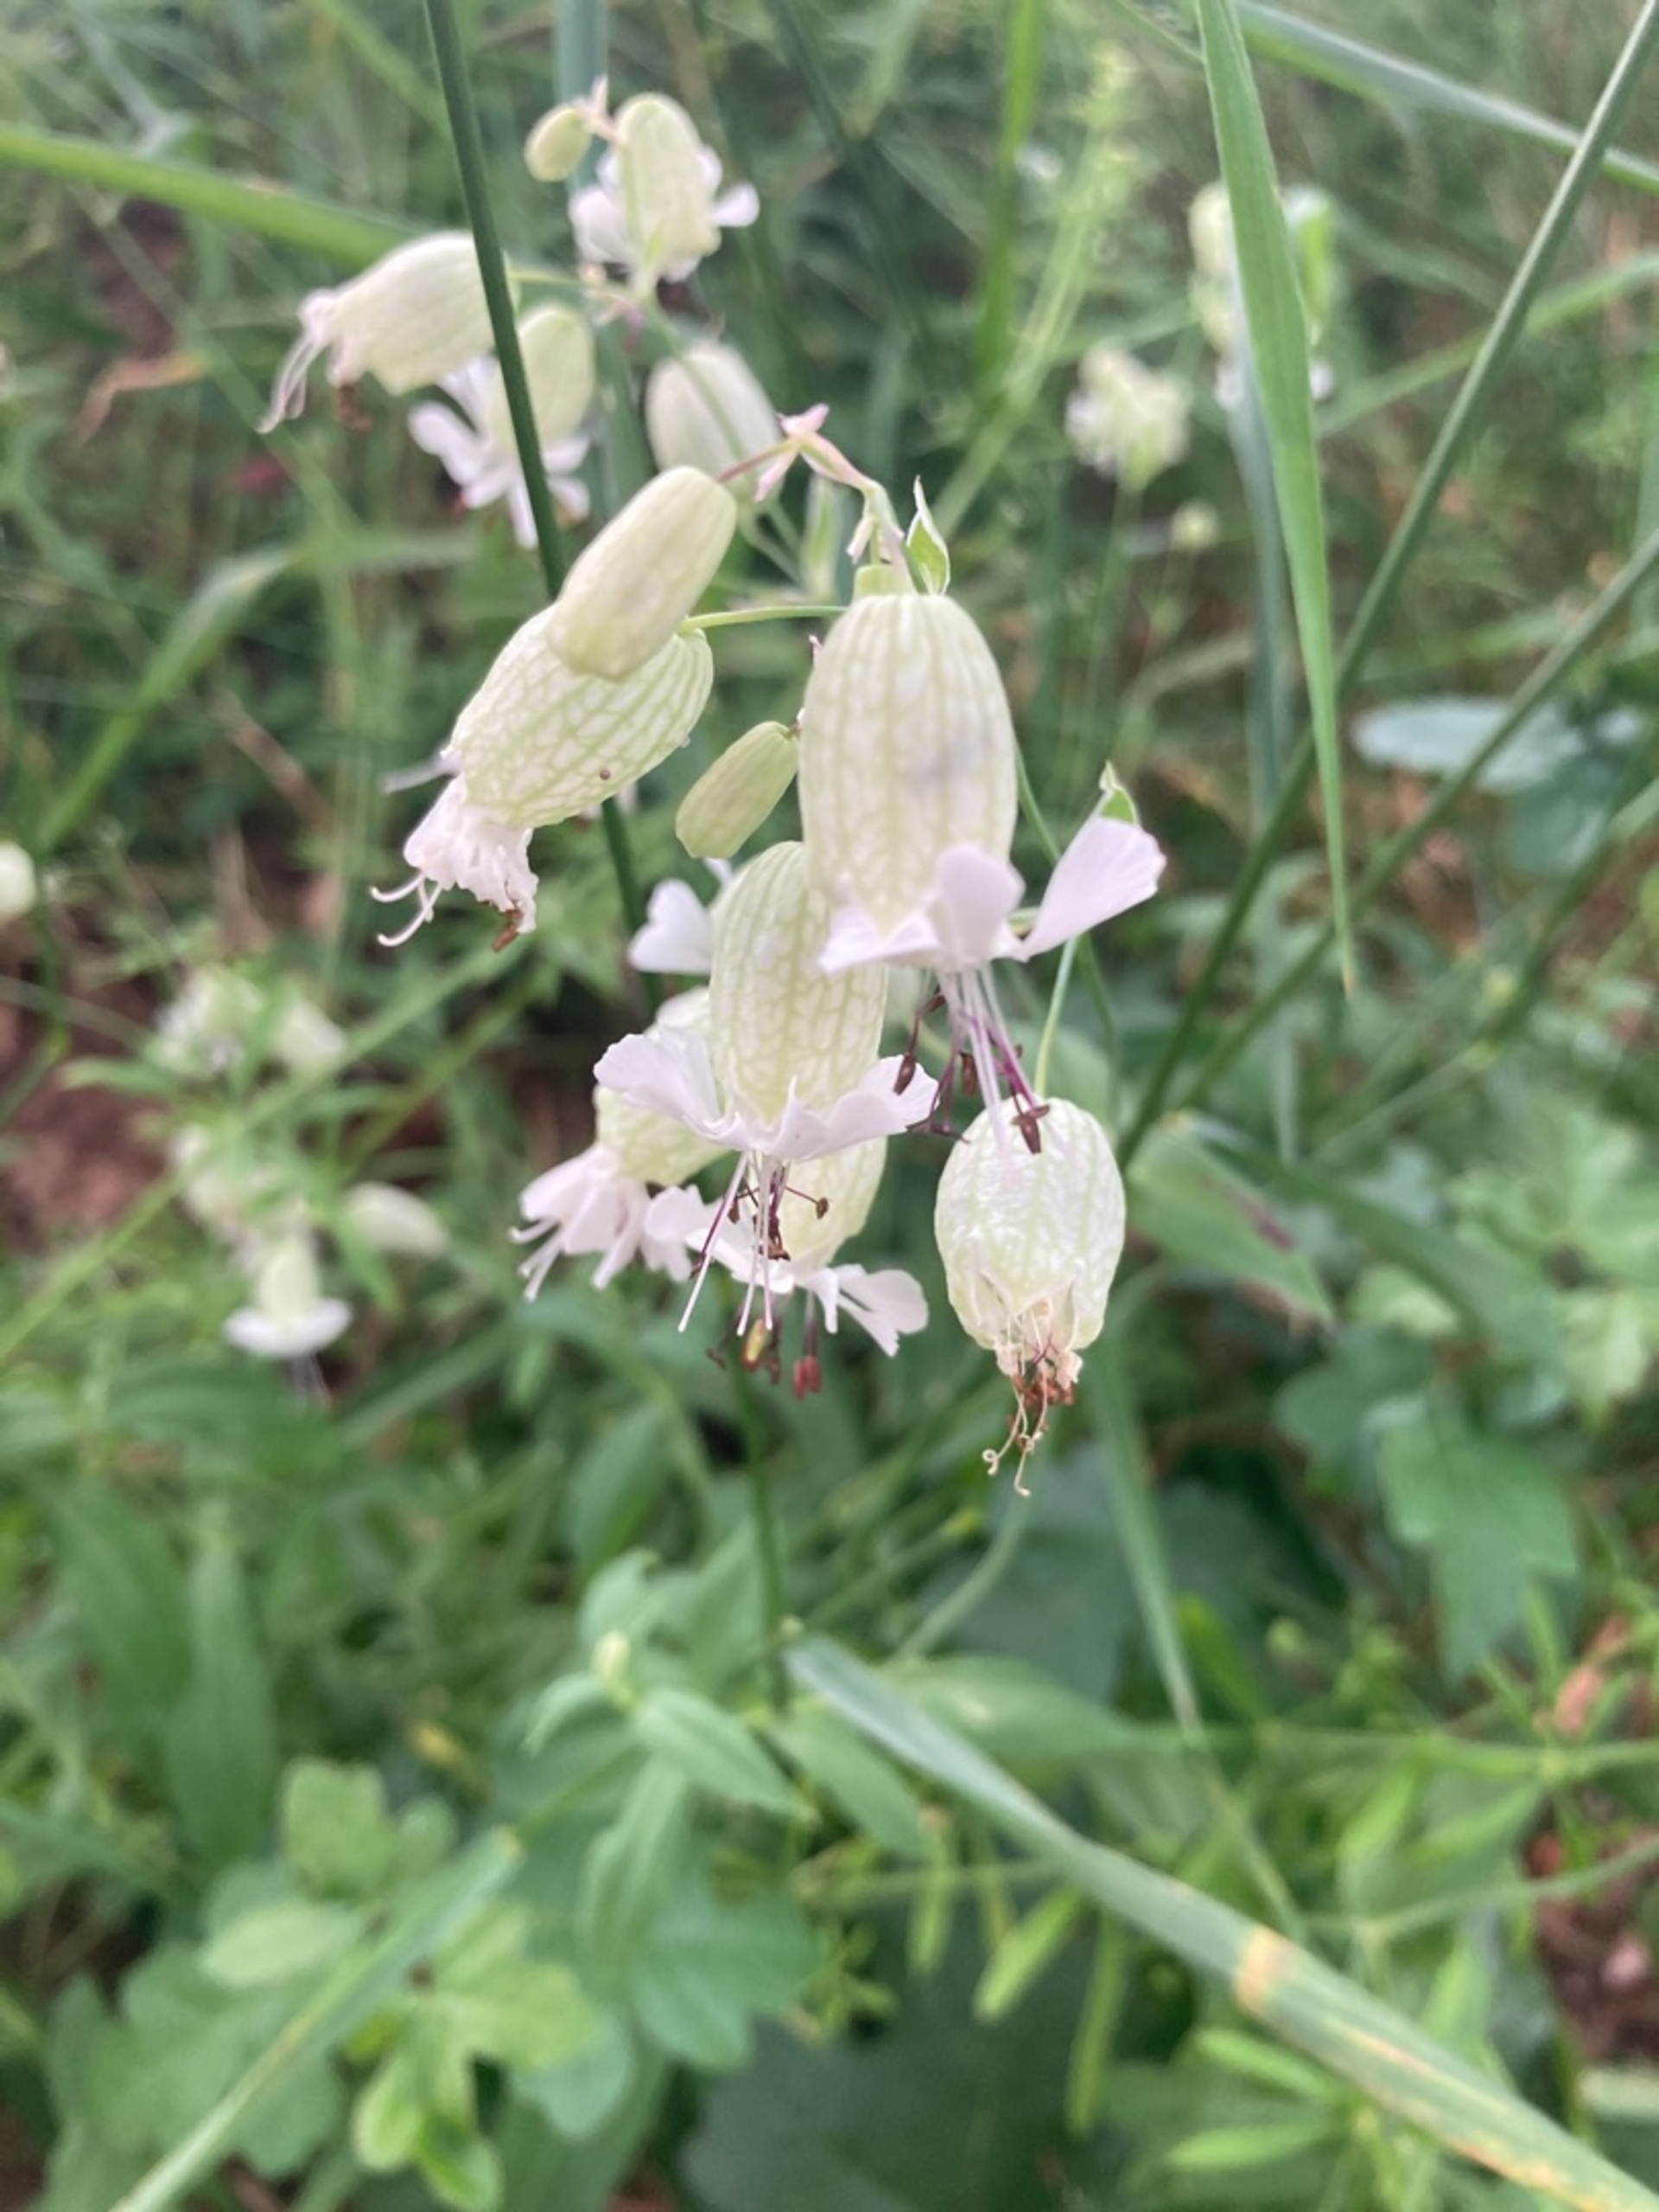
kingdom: Plantae
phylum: Tracheophyta
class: Magnoliopsida
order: Caryophyllales
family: Caryophyllaceae
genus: Silene
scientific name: Silene vulgaris
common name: Blæresmælde
